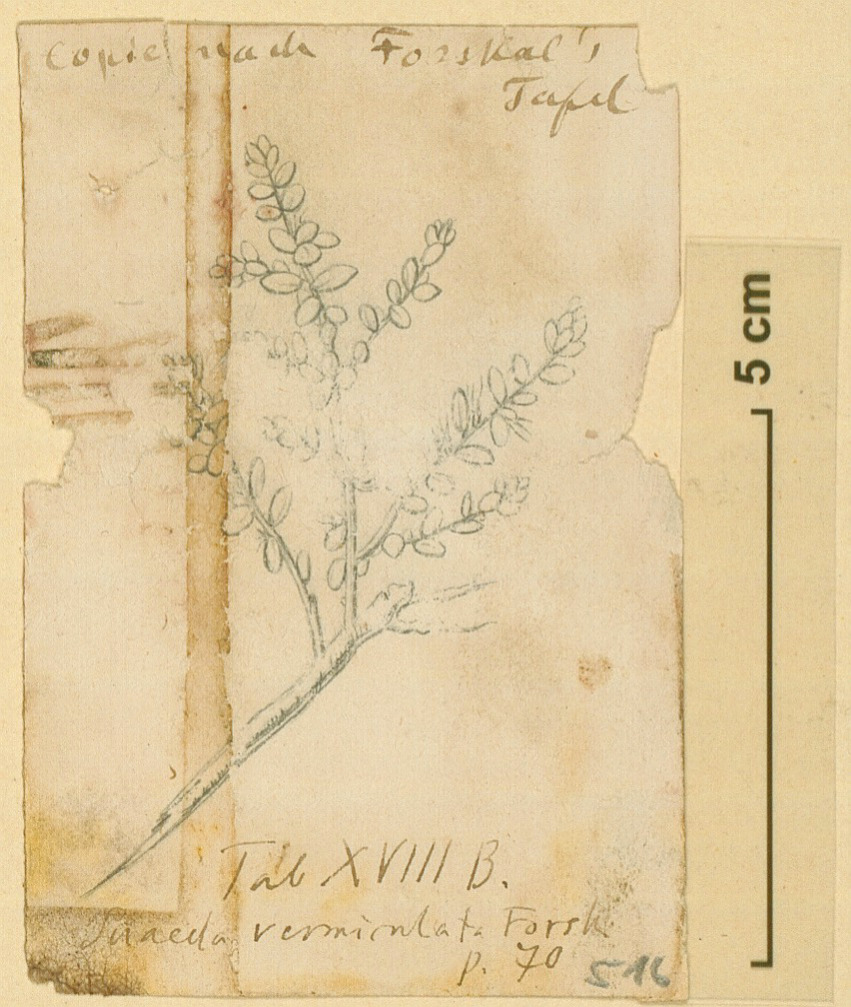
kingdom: Plantae
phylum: Tracheophyta
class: Magnoliopsida
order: Caryophyllales
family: Amaranthaceae
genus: Suaeda
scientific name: Suaeda vermiculata
